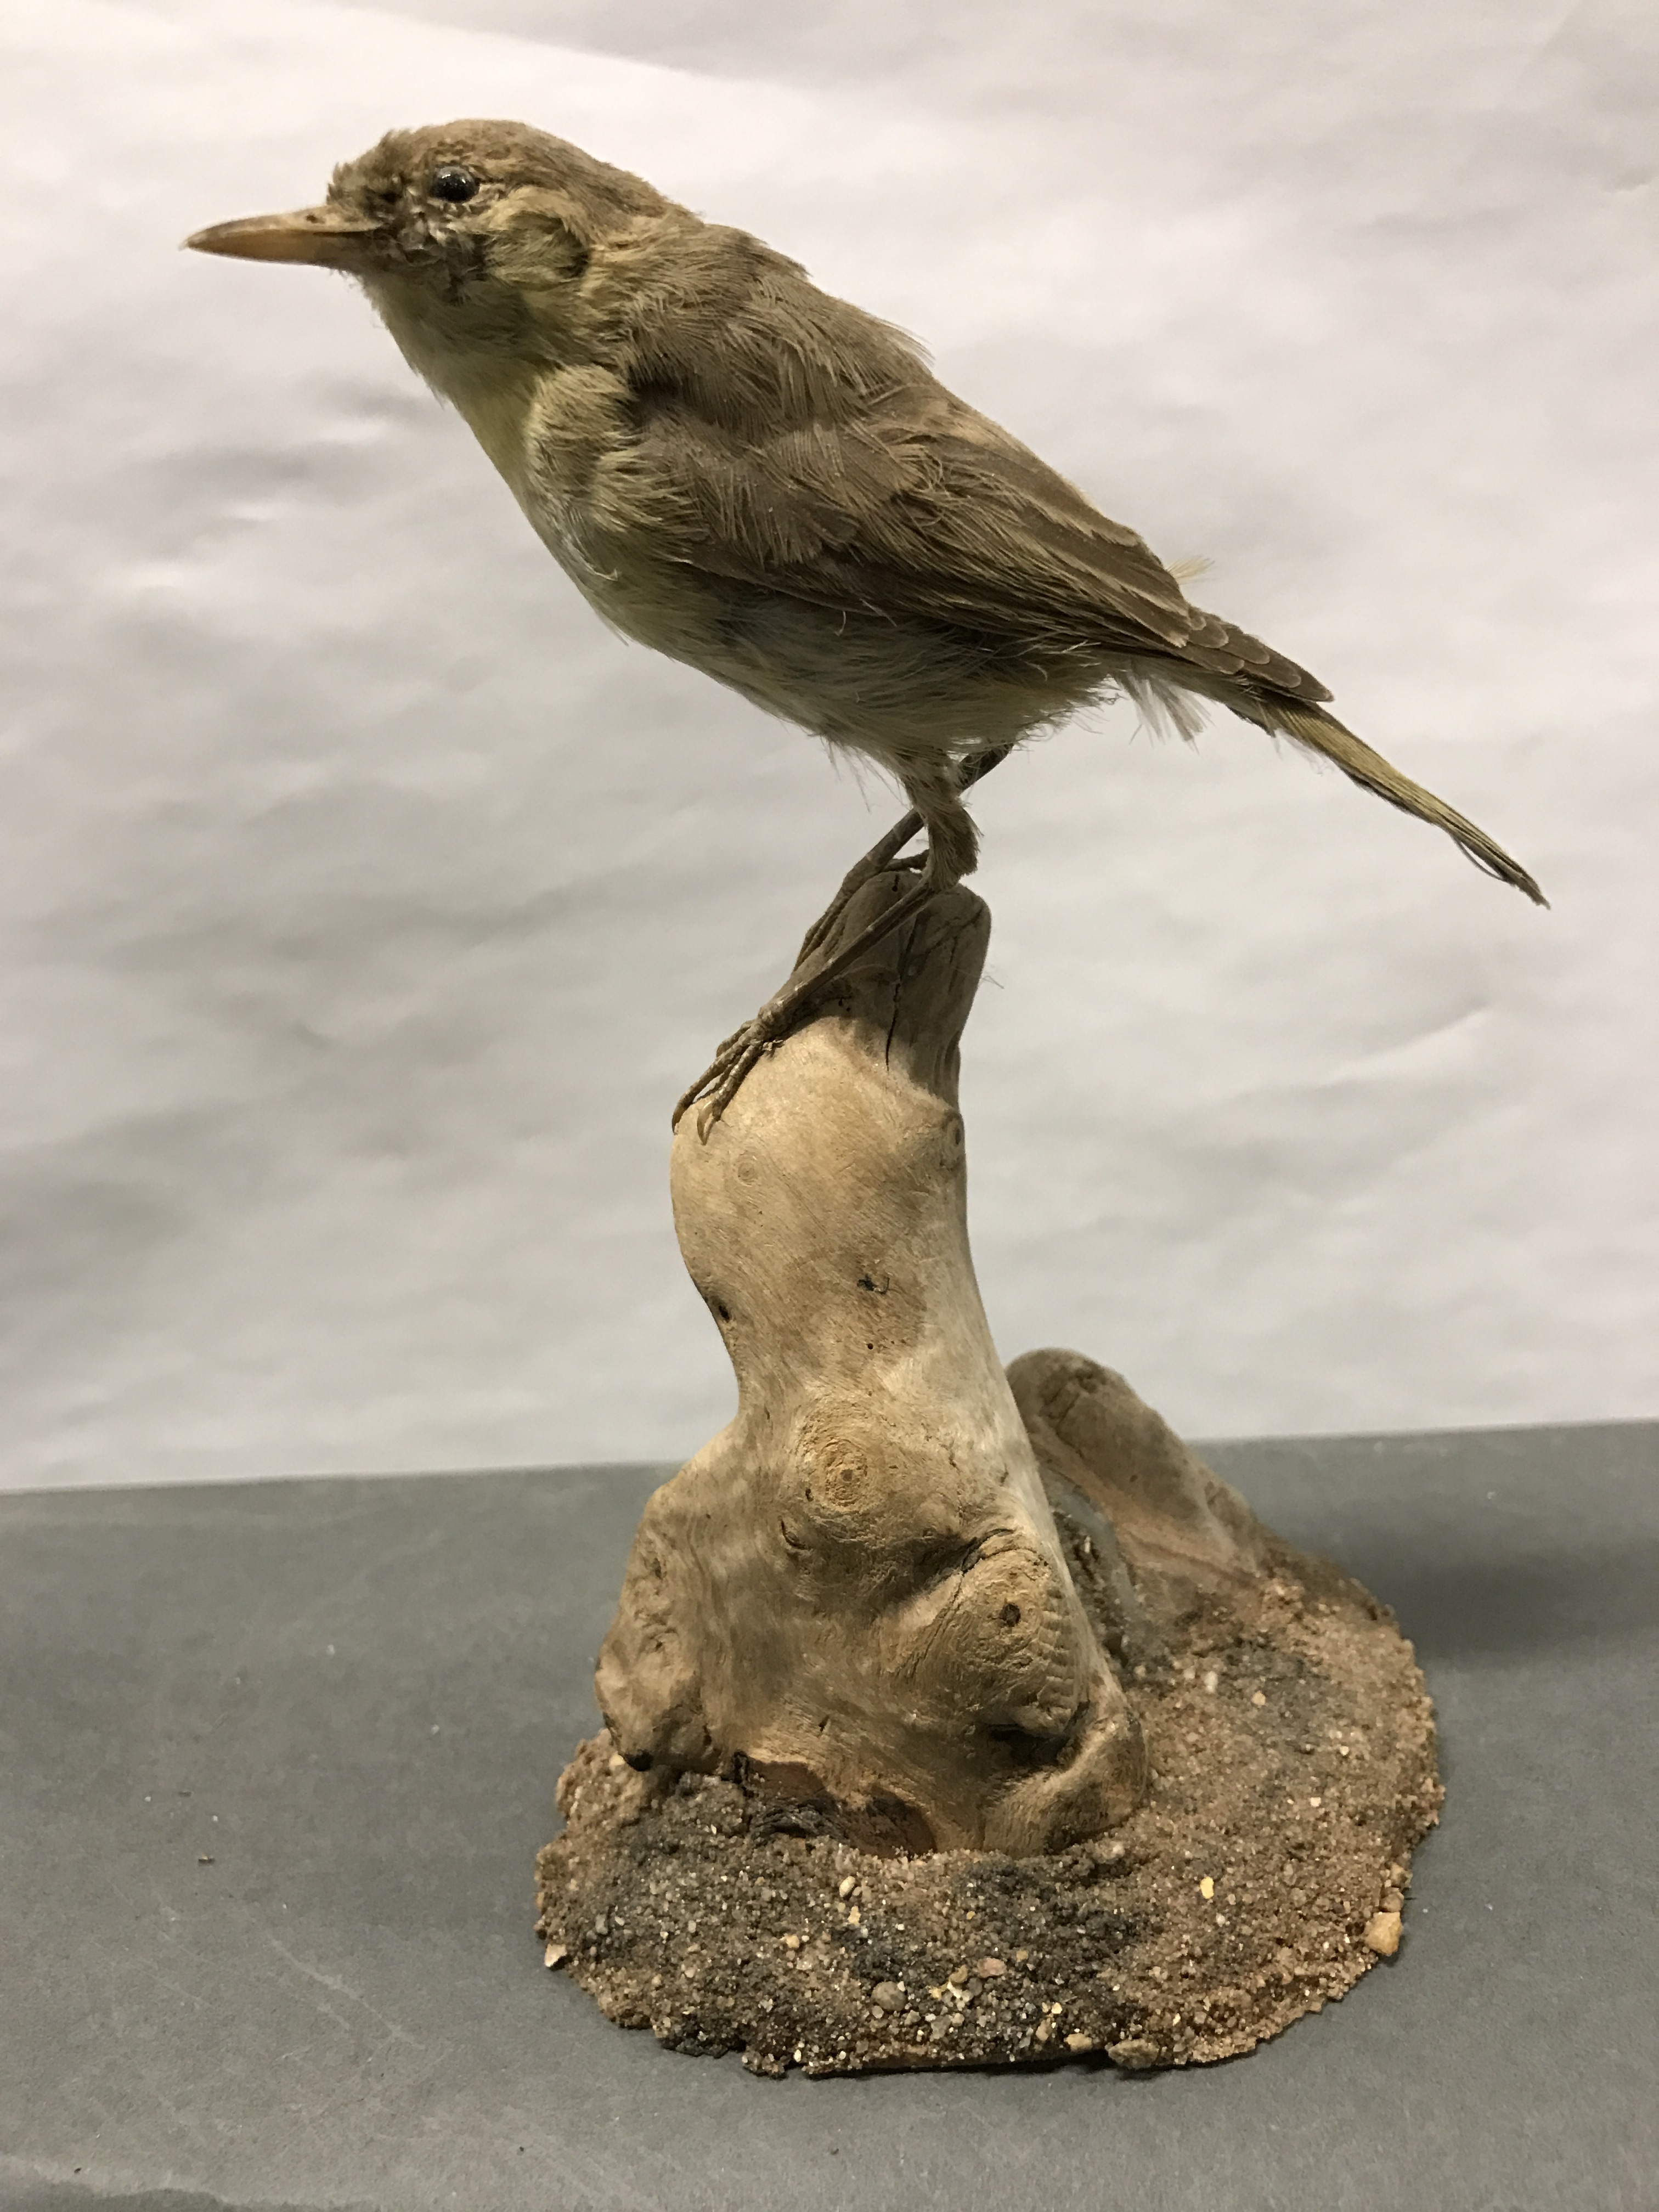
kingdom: Animalia
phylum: Chordata
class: Aves
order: Passeriformes
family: Phylloscopidae
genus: Phylloscopus
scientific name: Phylloscopus trochilus
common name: Willow warbler
